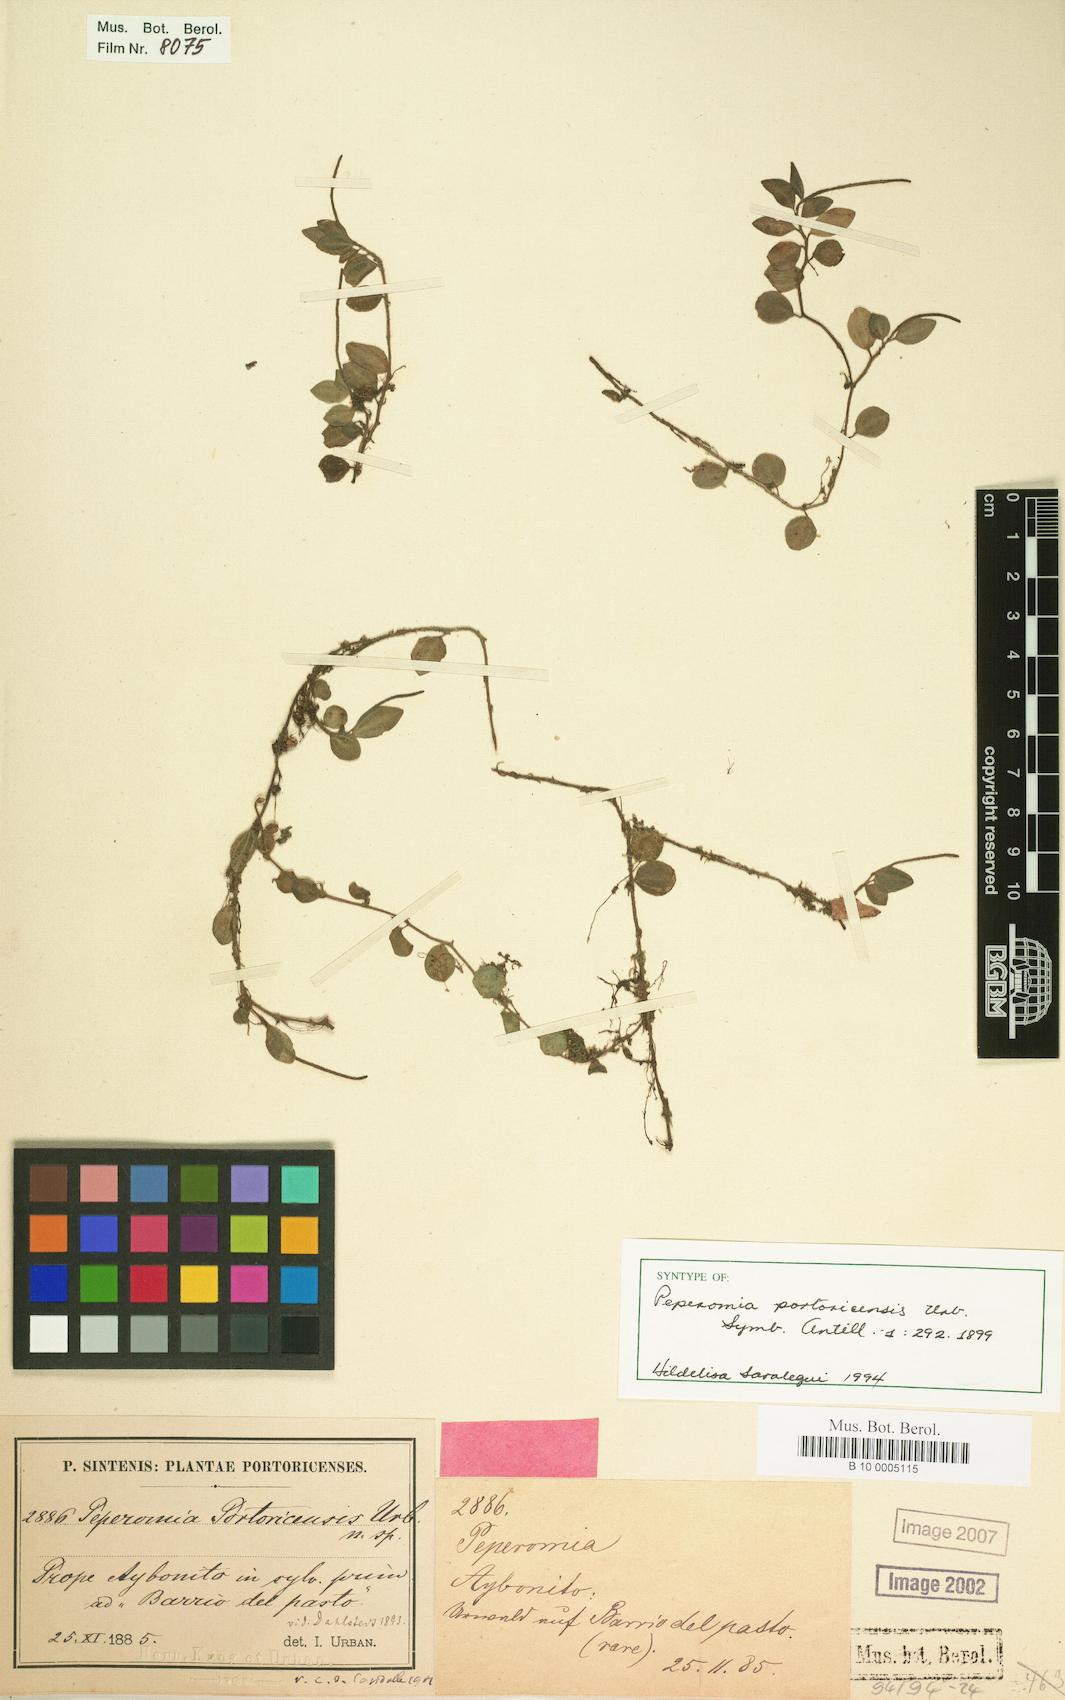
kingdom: Plantae
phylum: Tracheophyta
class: Magnoliopsida
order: Piperales
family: Piperaceae
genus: Peperomia
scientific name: Peperomia portoricensis
